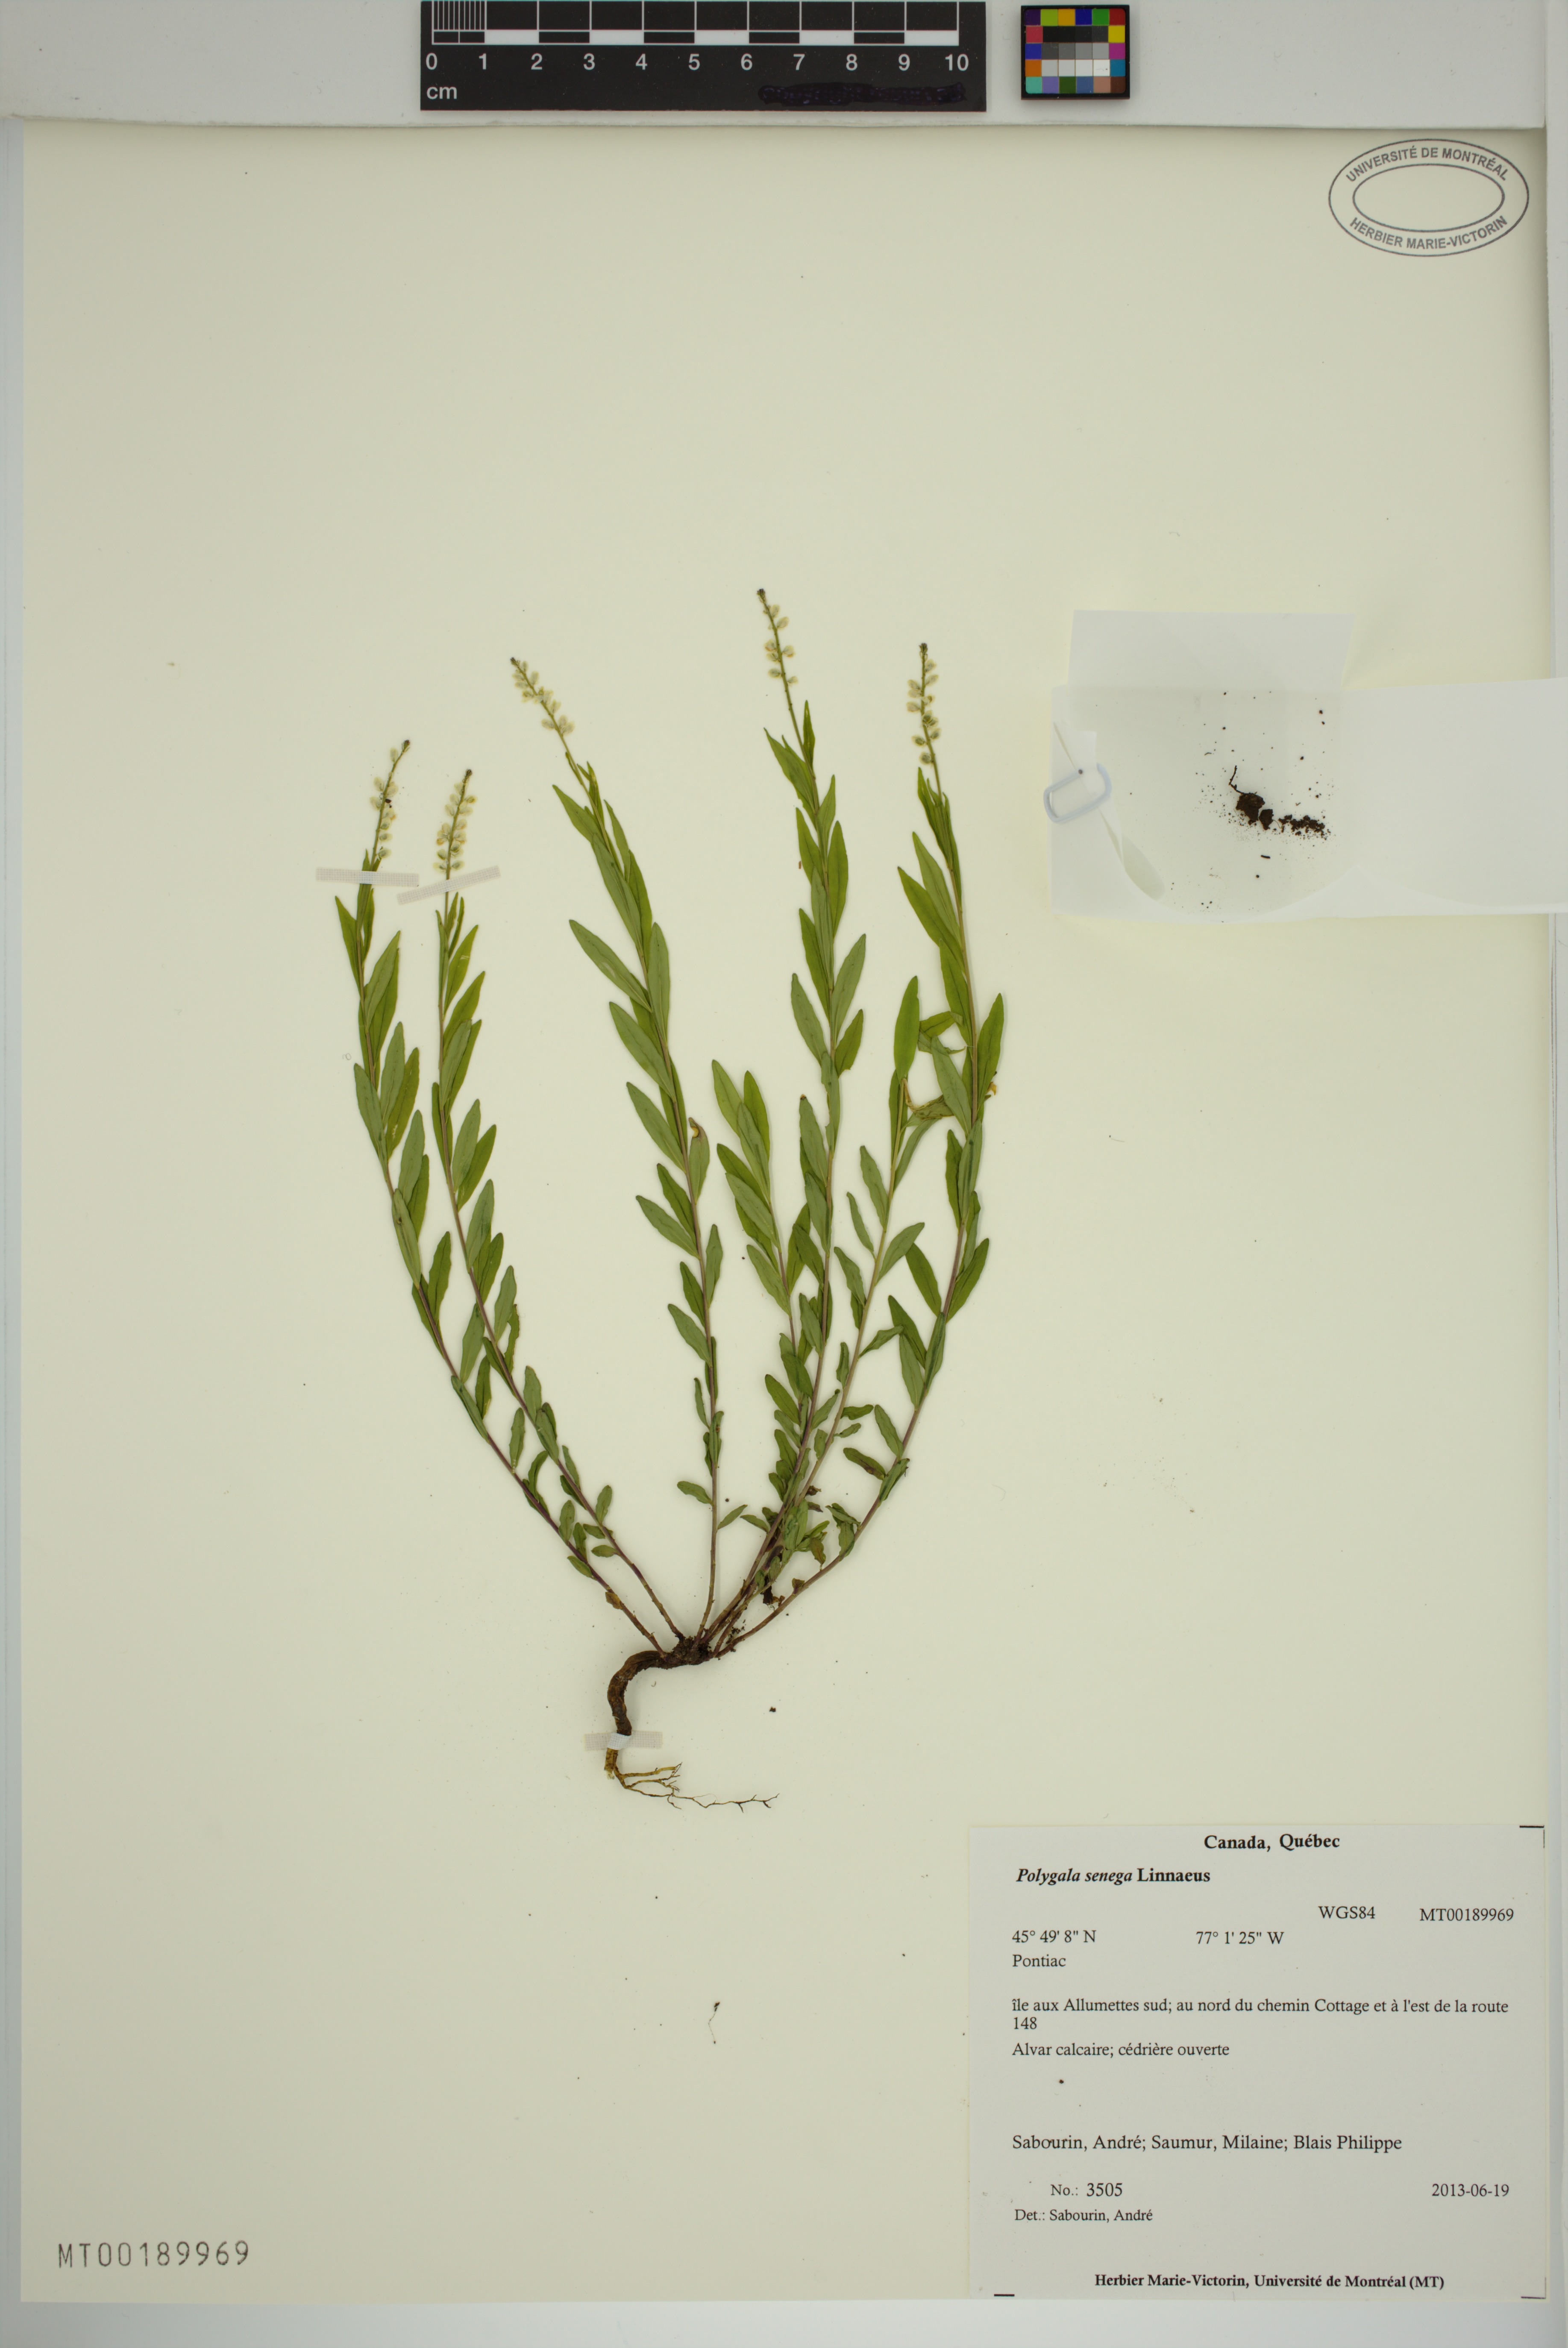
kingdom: Plantae
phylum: Tracheophyta
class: Magnoliopsida
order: Fabales
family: Polygalaceae
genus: Polygala
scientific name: Polygala senega
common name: Seneca snakeroot
